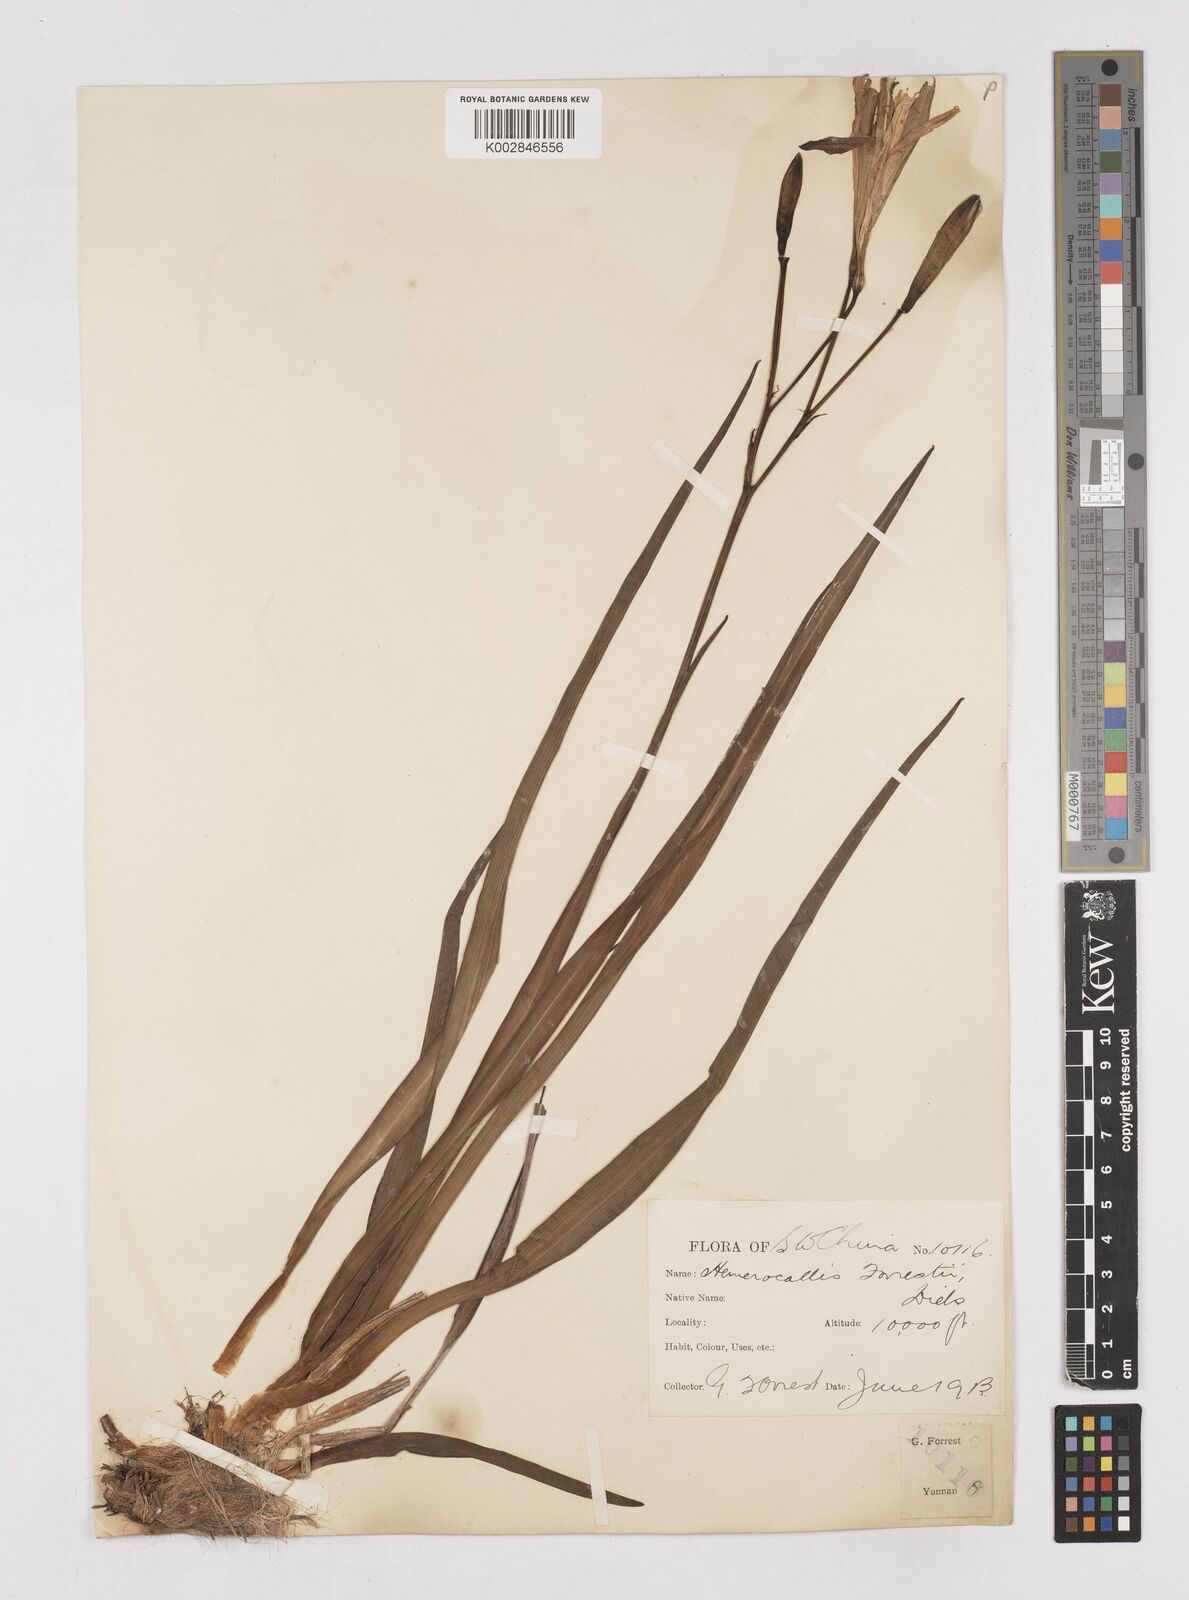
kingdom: Plantae
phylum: Tracheophyta
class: Liliopsida
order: Asparagales
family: Asphodelaceae
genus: Hemerocallis
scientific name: Hemerocallis forrestii
